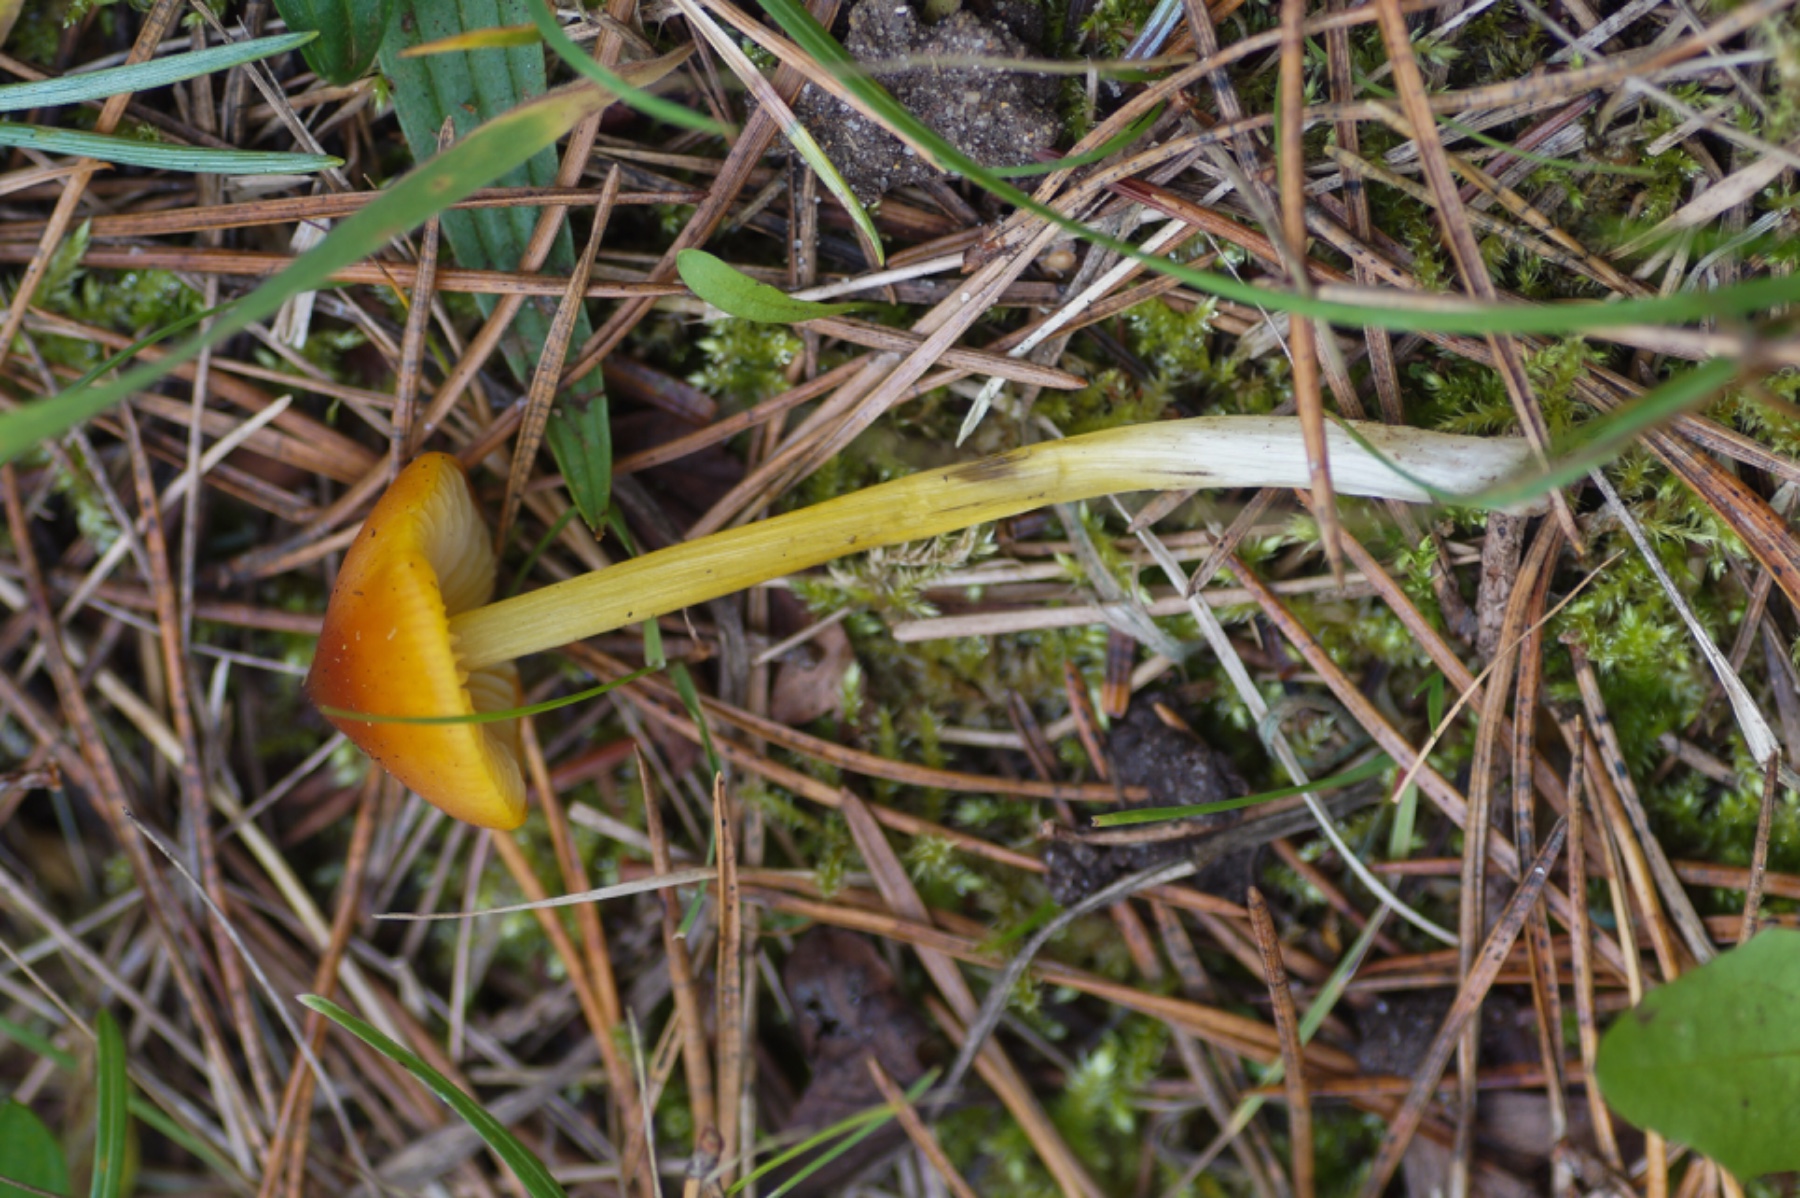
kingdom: Fungi
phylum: Basidiomycota
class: Agaricomycetes
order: Agaricales
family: Hygrophoraceae
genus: Hygrocybe
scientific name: Hygrocybe conica
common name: kegle-vokshat
